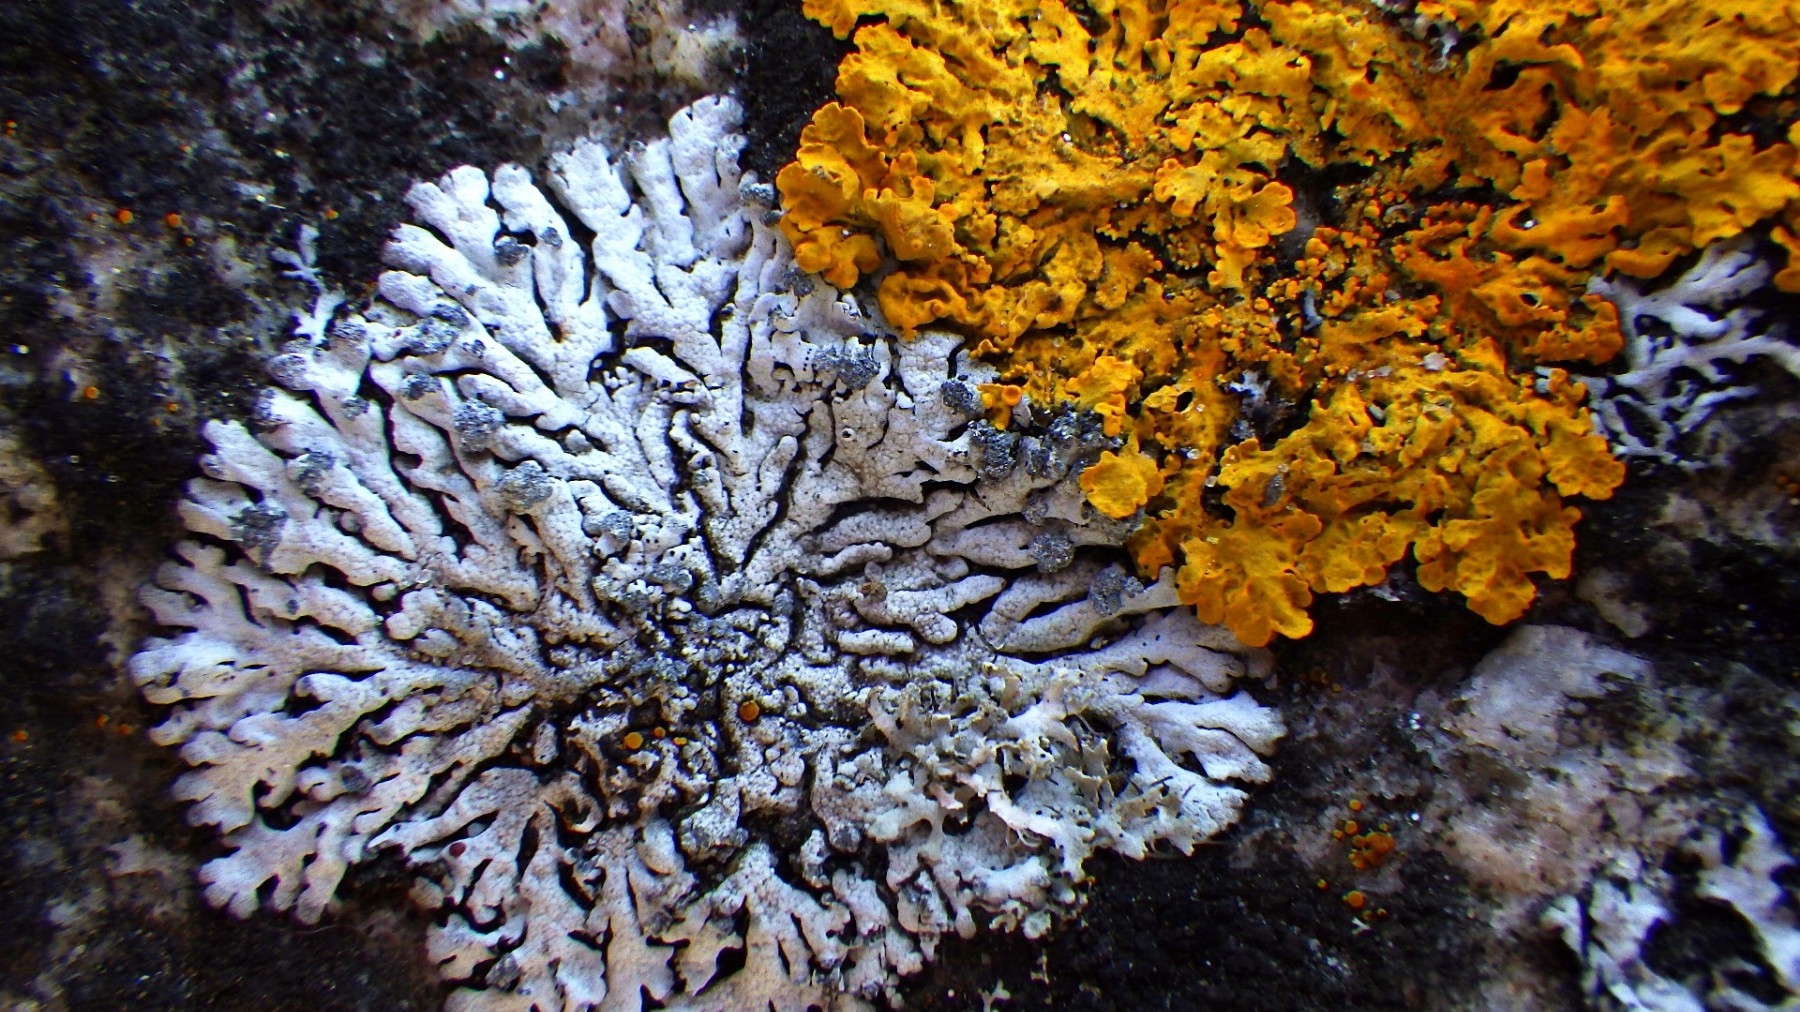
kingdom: Fungi
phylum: Ascomycota
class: Lecanoromycetes
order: Caliciales
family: Physciaceae
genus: Physcia
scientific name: Physcia caesia
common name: blågrå rosetlav
